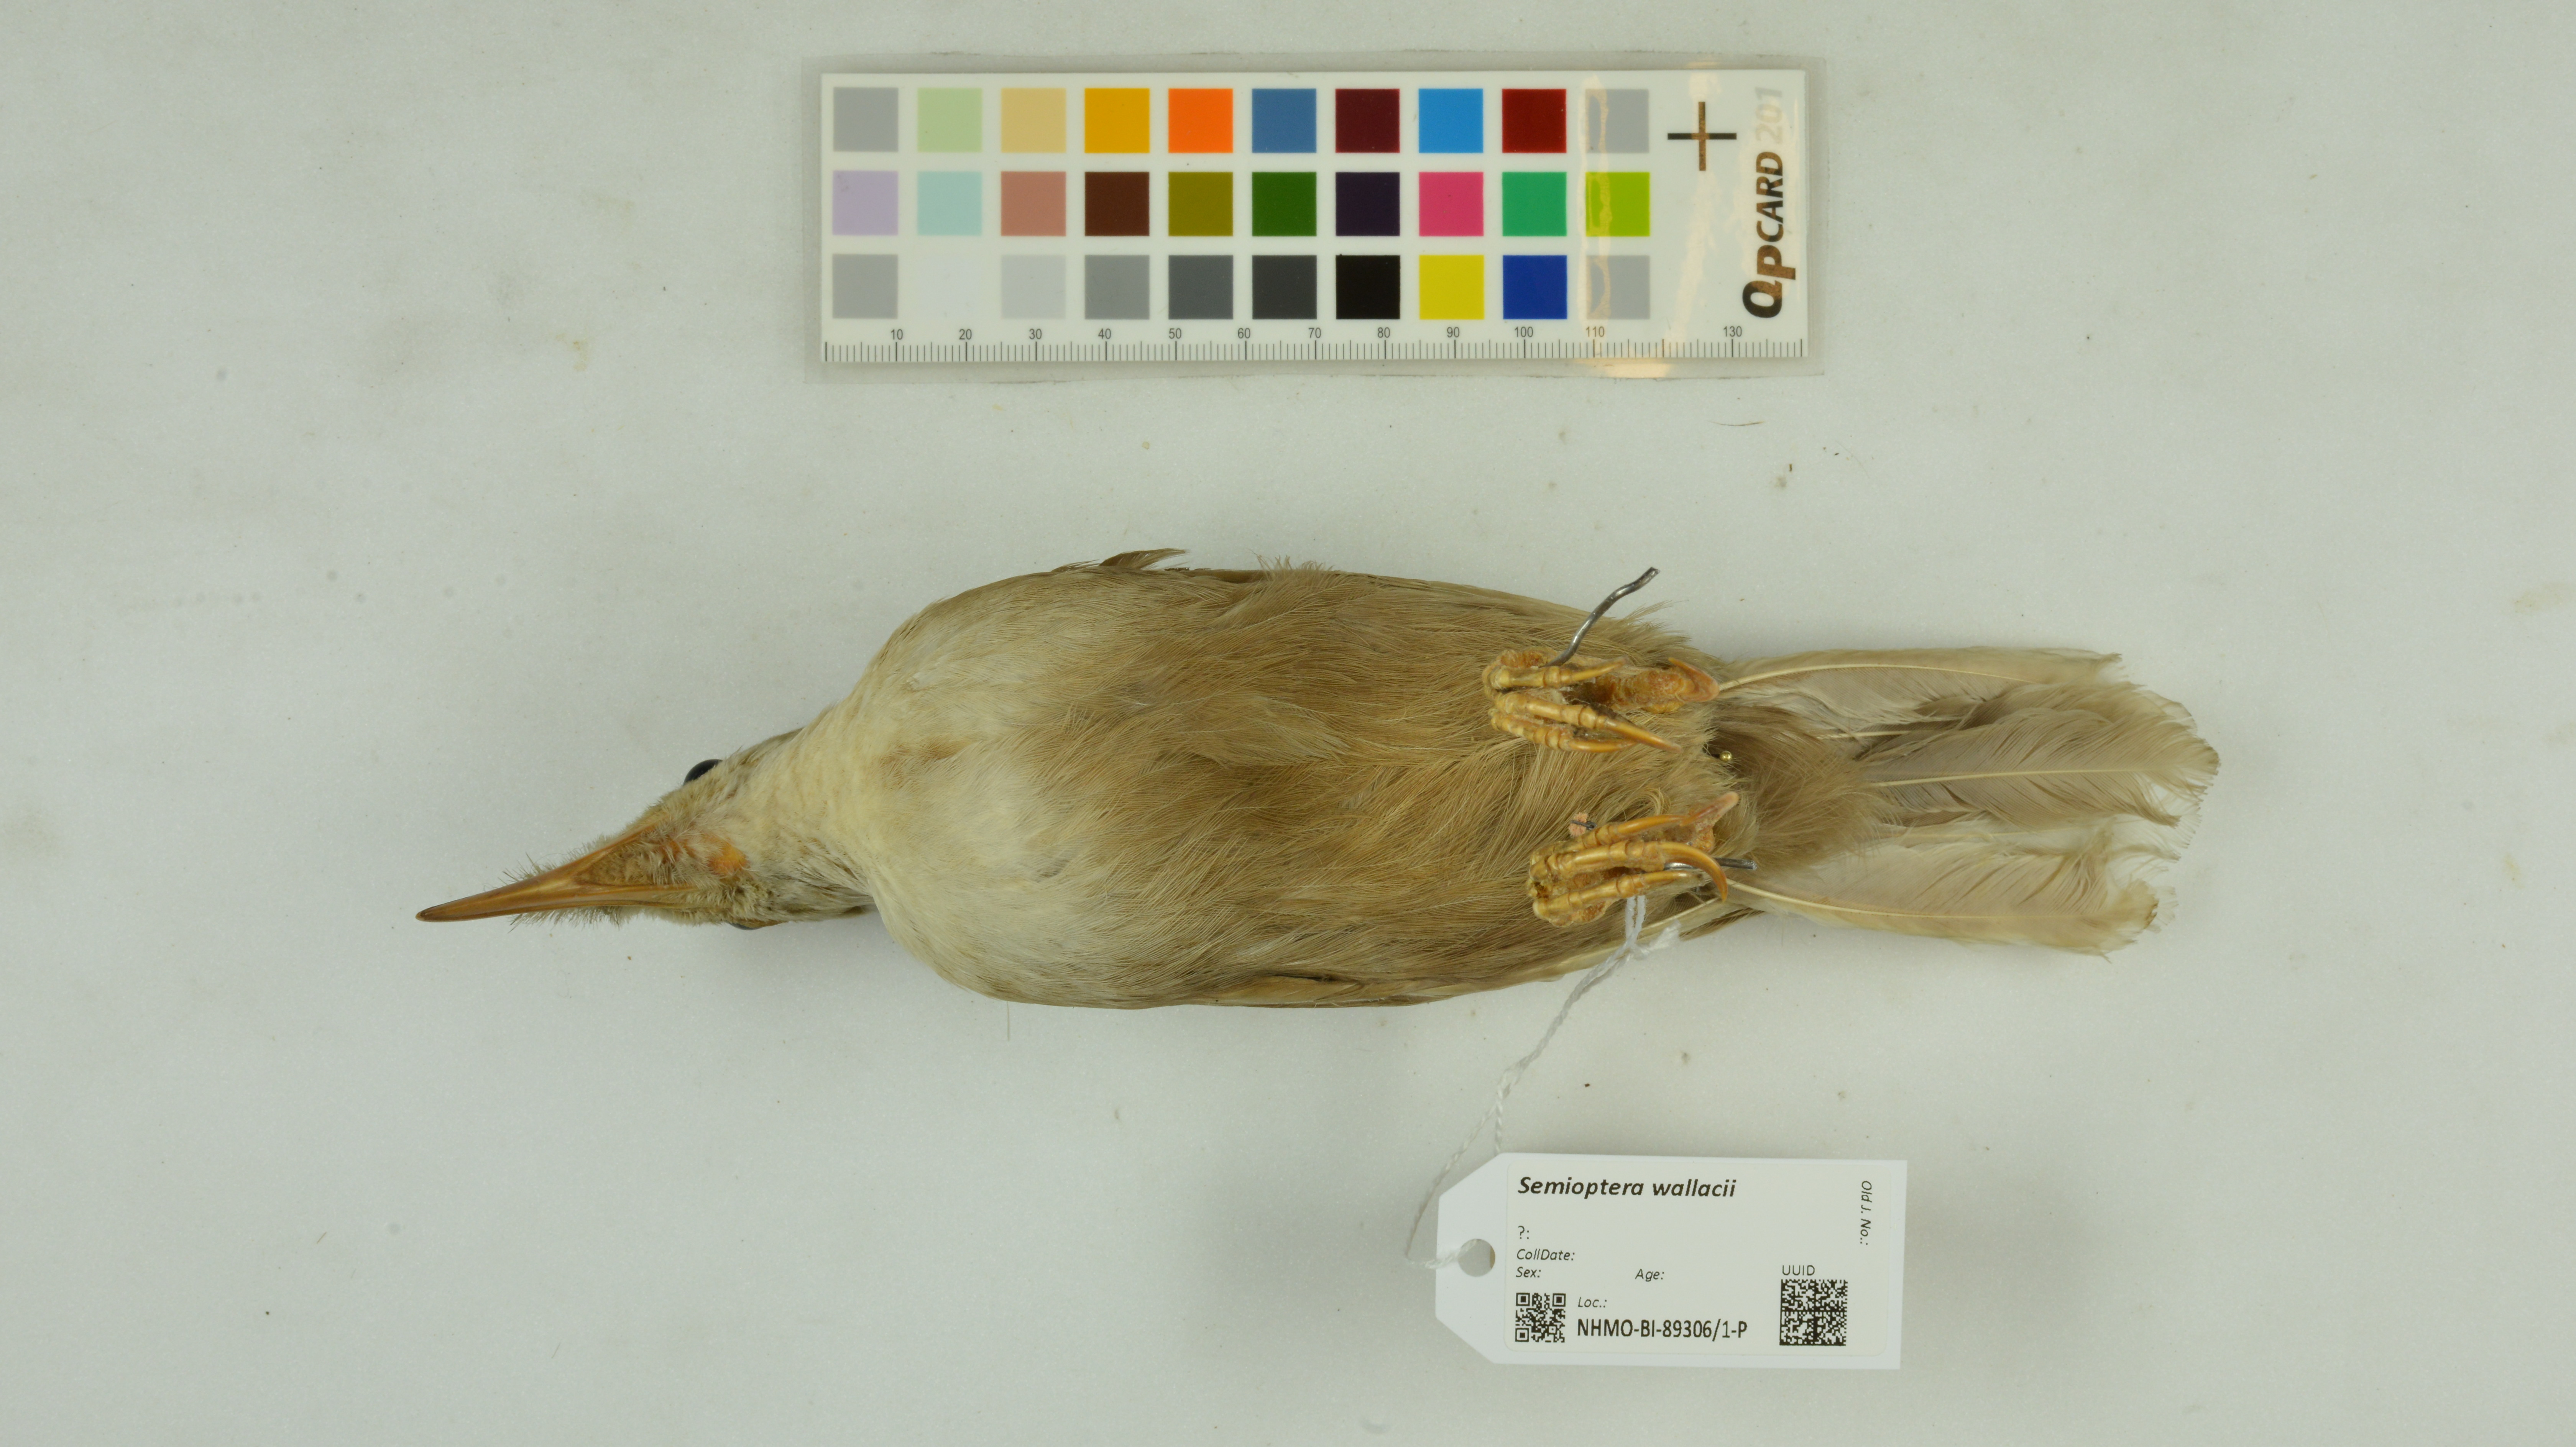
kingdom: Animalia
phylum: Chordata
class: Aves
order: Passeriformes
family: Paradisaeidae
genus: Semioptera
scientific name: Semioptera wallacii
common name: Standardwing
